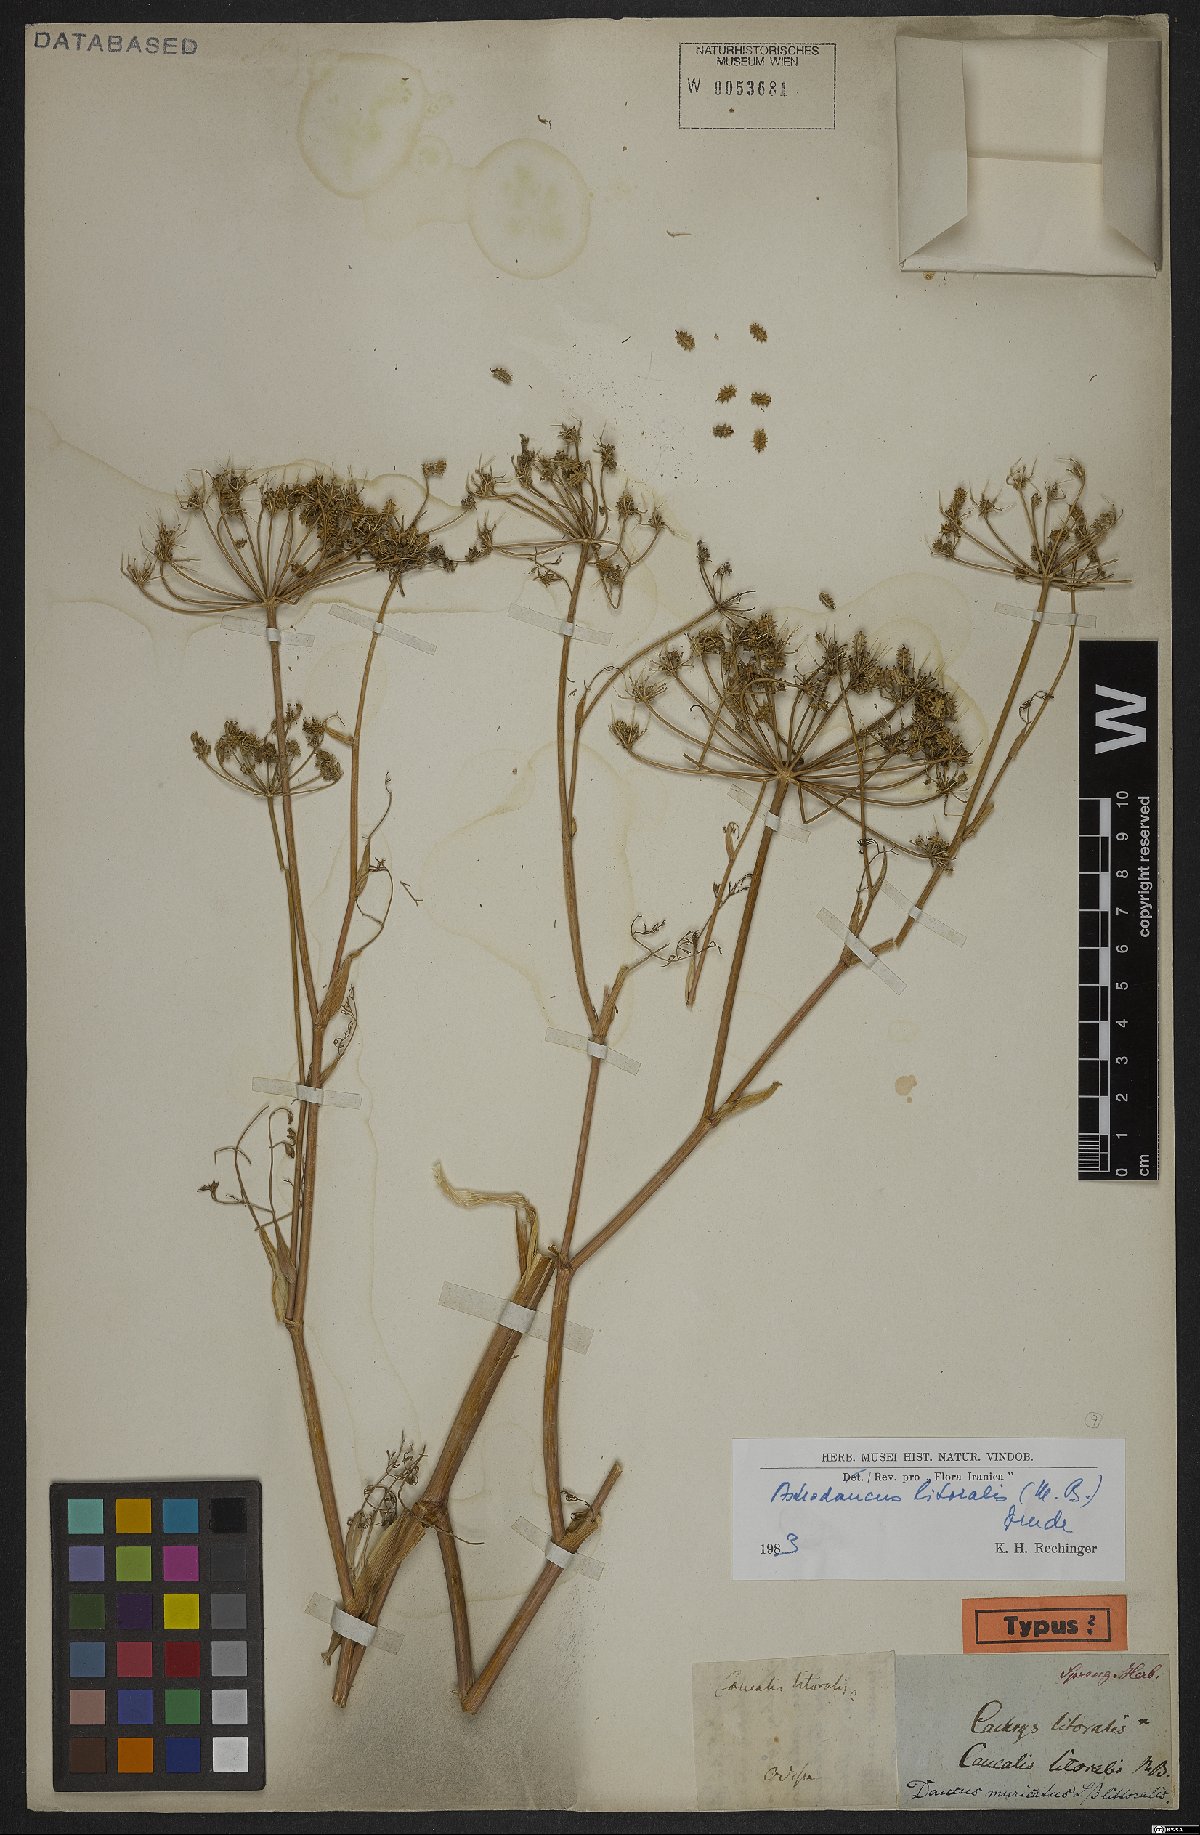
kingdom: Plantae
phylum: Tracheophyta
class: Magnoliopsida
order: Apiales
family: Apiaceae
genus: Astrodaucus
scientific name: Astrodaucus littoralis
